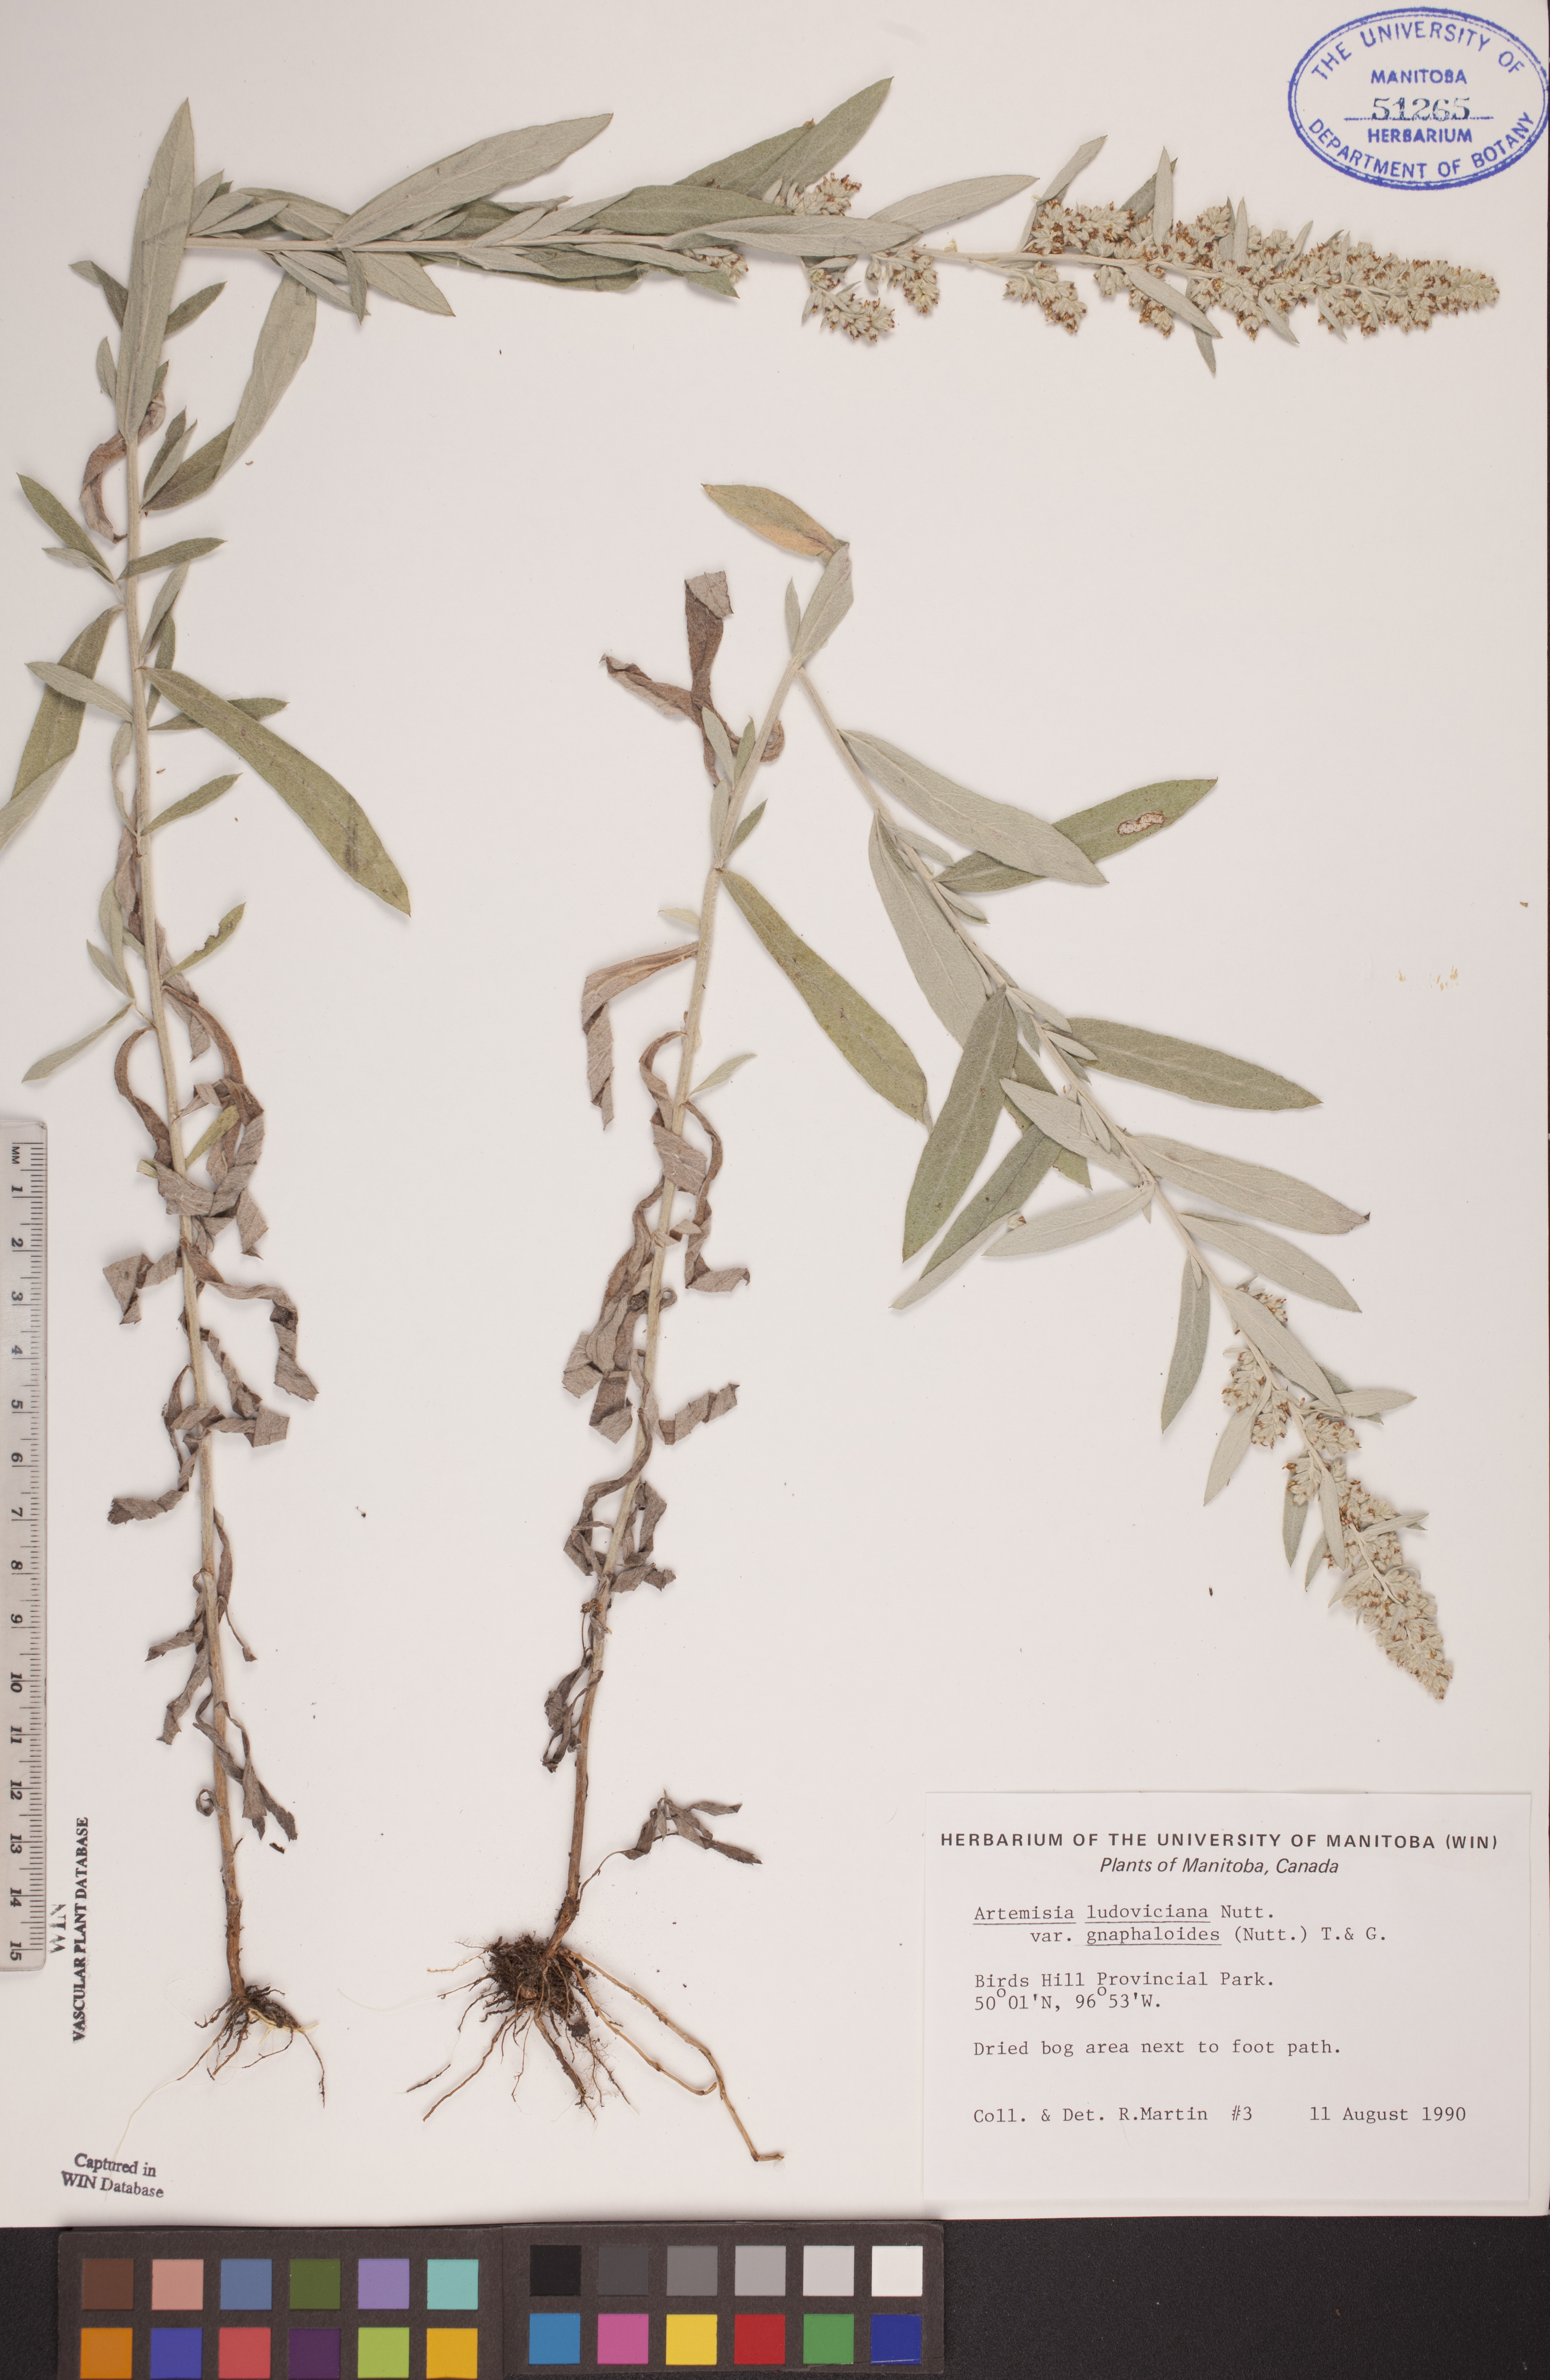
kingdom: Plantae
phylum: Tracheophyta
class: Magnoliopsida
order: Asterales
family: Asteraceae
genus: Artemisia
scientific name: Artemisia ludoviciana
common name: Western mugwort
